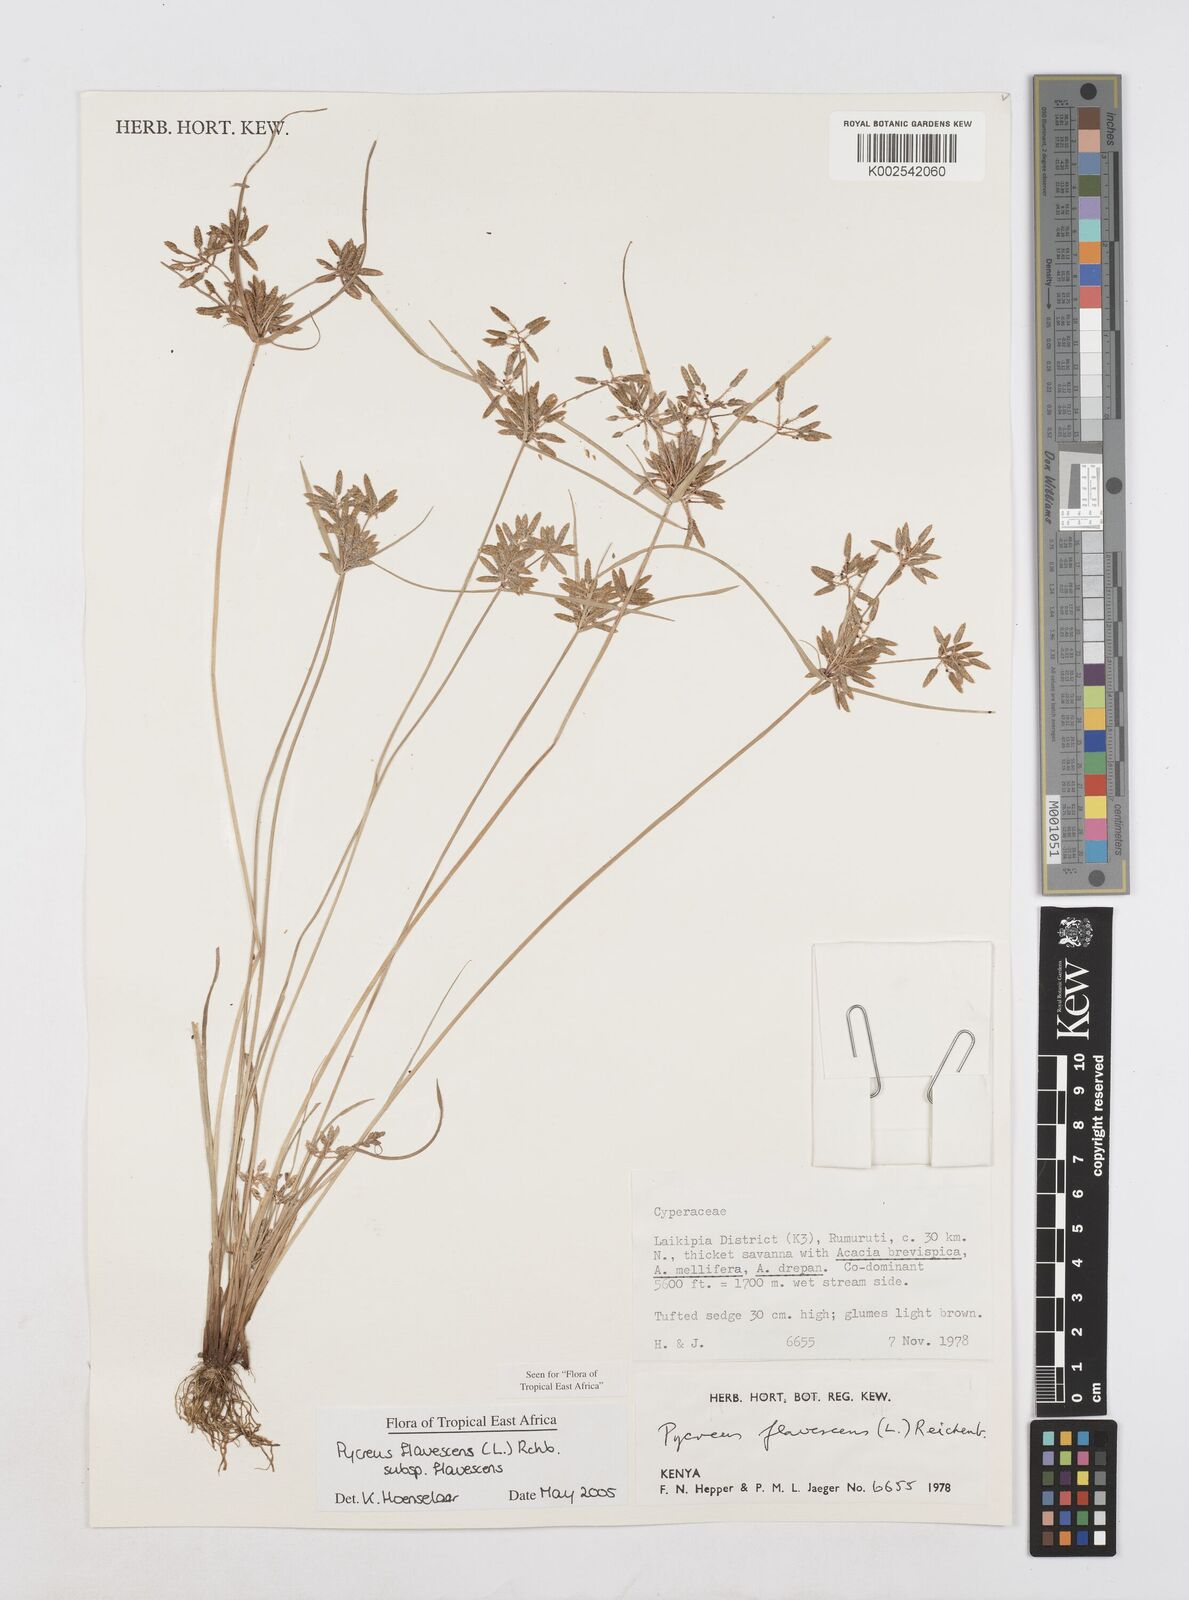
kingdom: Plantae
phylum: Tracheophyta
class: Liliopsida
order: Poales
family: Cyperaceae
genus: Cyperus
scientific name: Cyperus flavescens
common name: Yellow galingale
